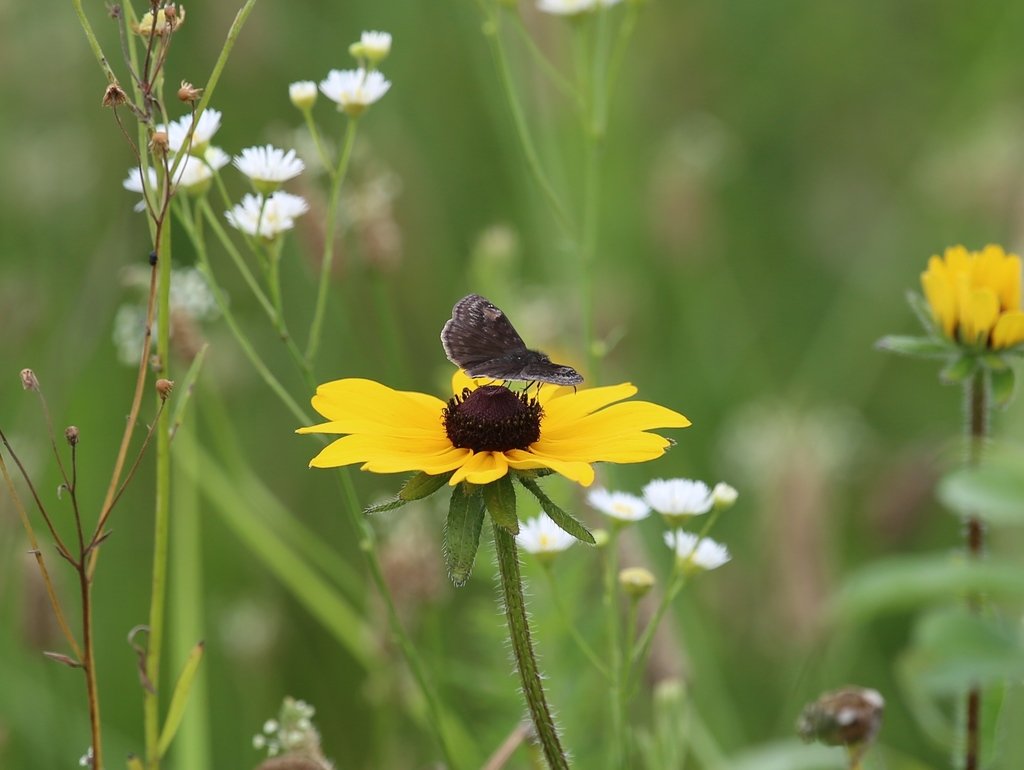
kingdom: Animalia
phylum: Arthropoda
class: Insecta
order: Lepidoptera
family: Hesperiidae
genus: Gesta
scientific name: Gesta
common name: Wild Indigo Duskywing
